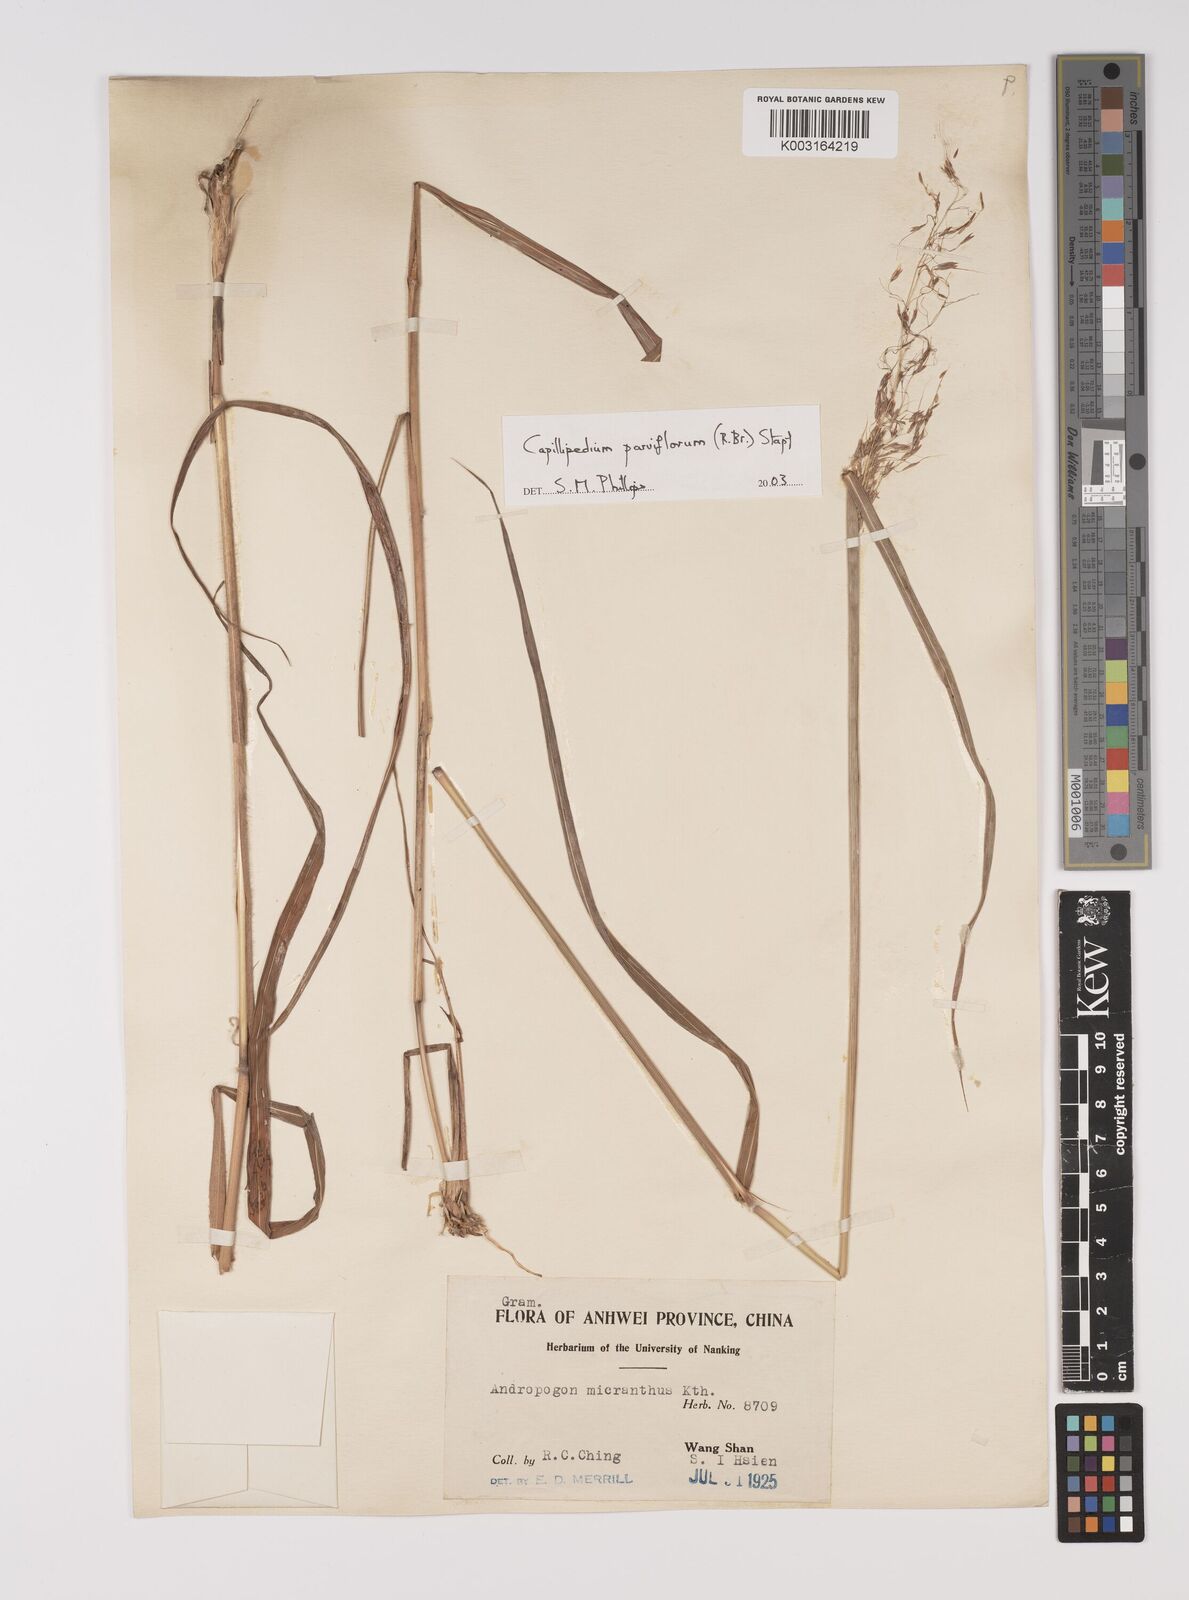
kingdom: Plantae
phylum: Tracheophyta
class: Liliopsida
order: Poales
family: Poaceae
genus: Capillipedium
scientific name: Capillipedium parviflorum
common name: Golden-beard
